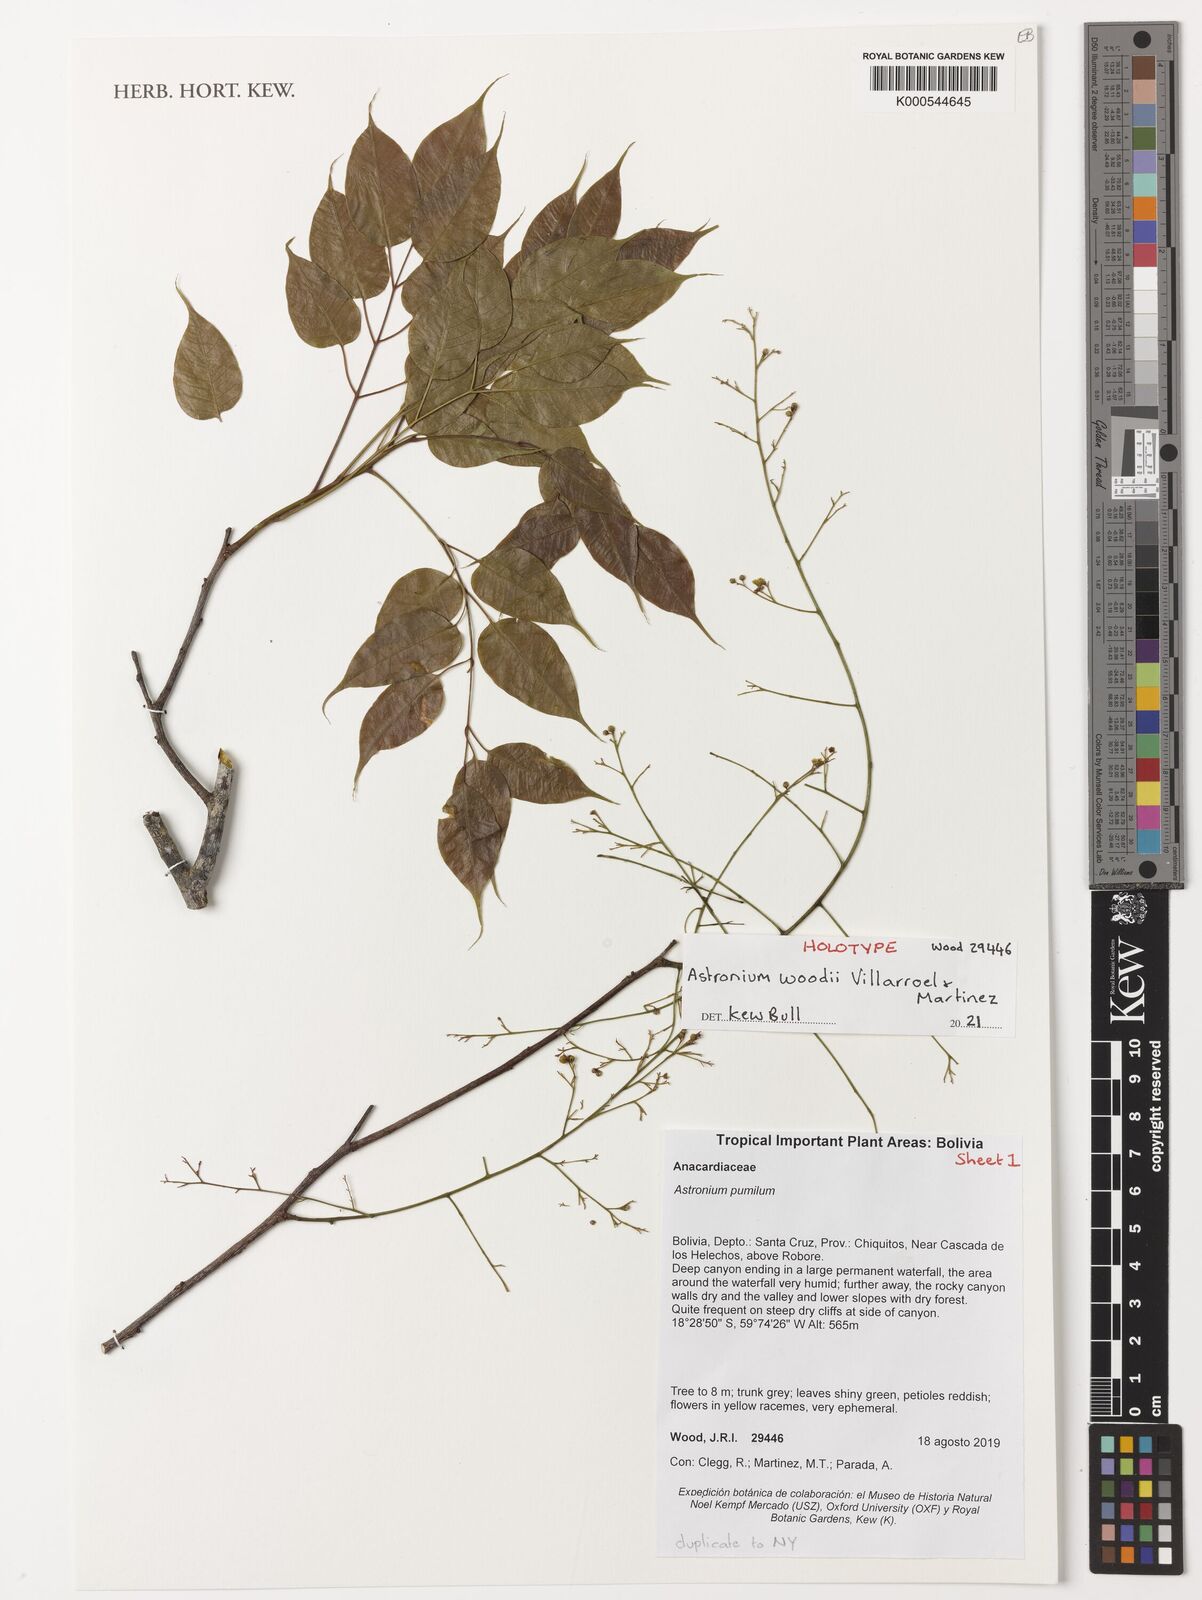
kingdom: Plantae
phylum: Tracheophyta
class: Magnoliopsida
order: Sapindales
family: Anacardiaceae
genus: Astronium
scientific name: Astronium
